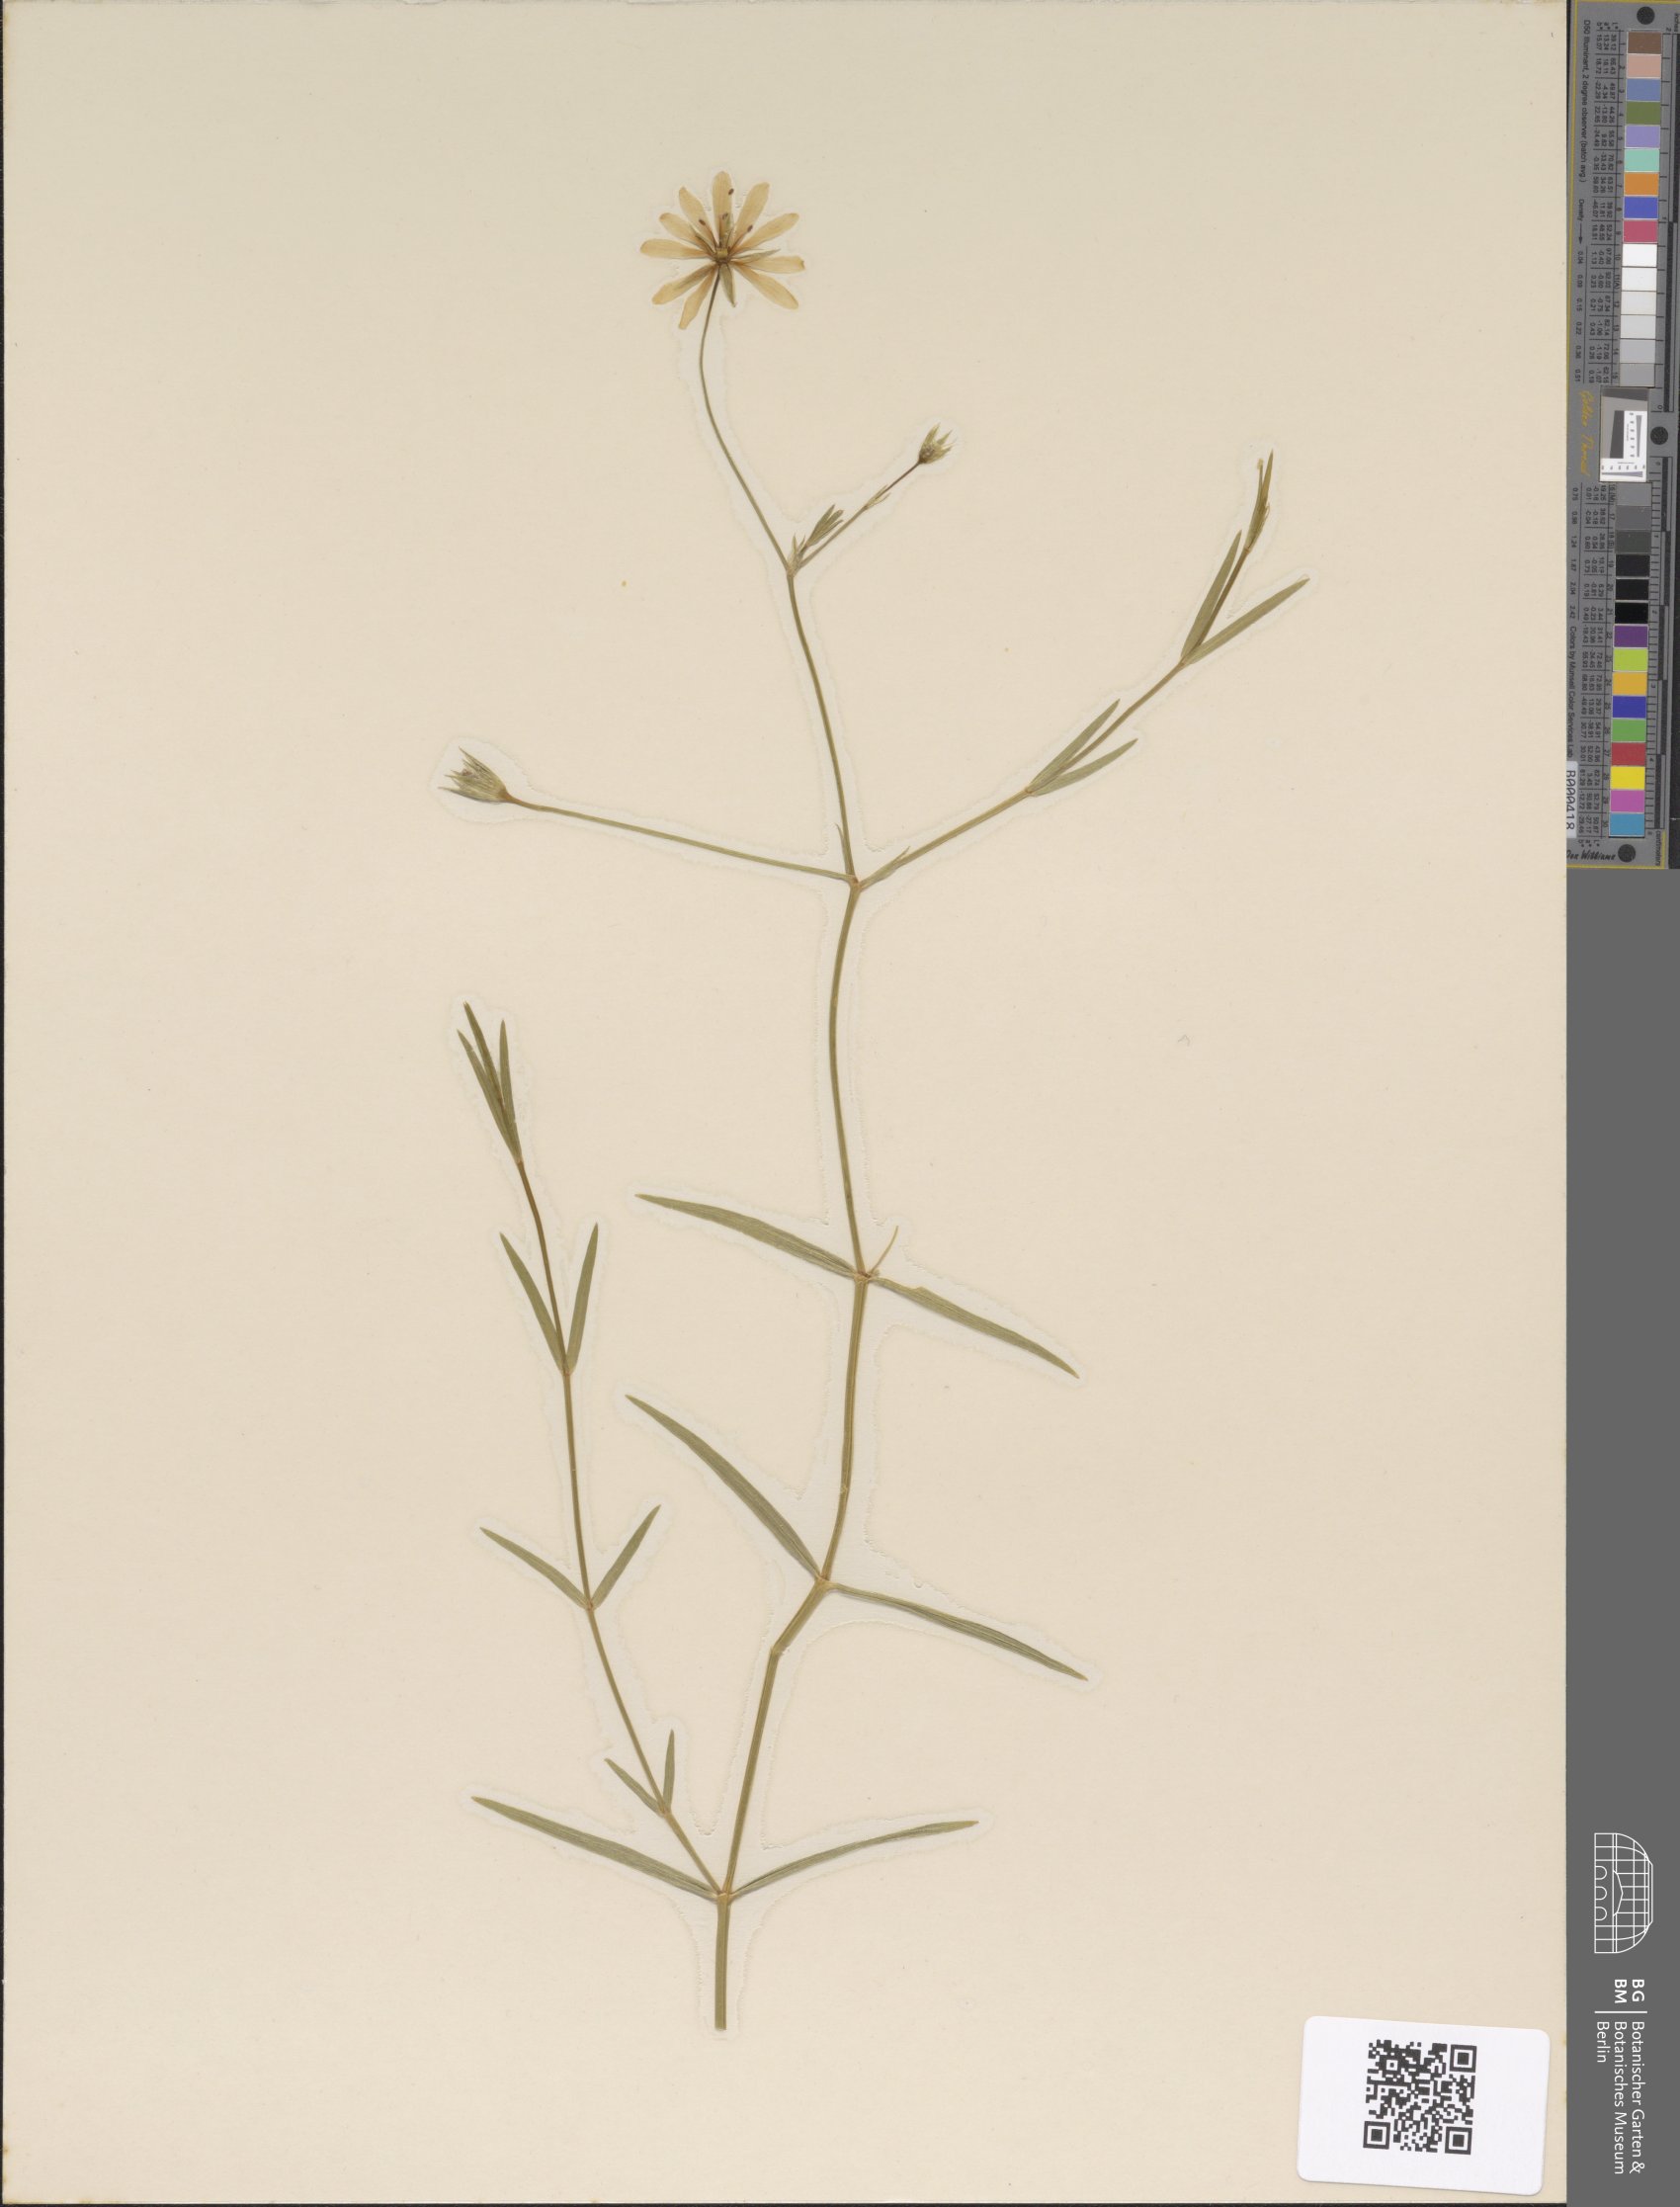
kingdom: Plantae
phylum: Tracheophyta
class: Magnoliopsida
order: Caryophyllales
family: Caryophyllaceae
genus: Stellaria
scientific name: Stellaria palustris
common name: Marsh stitchwort
